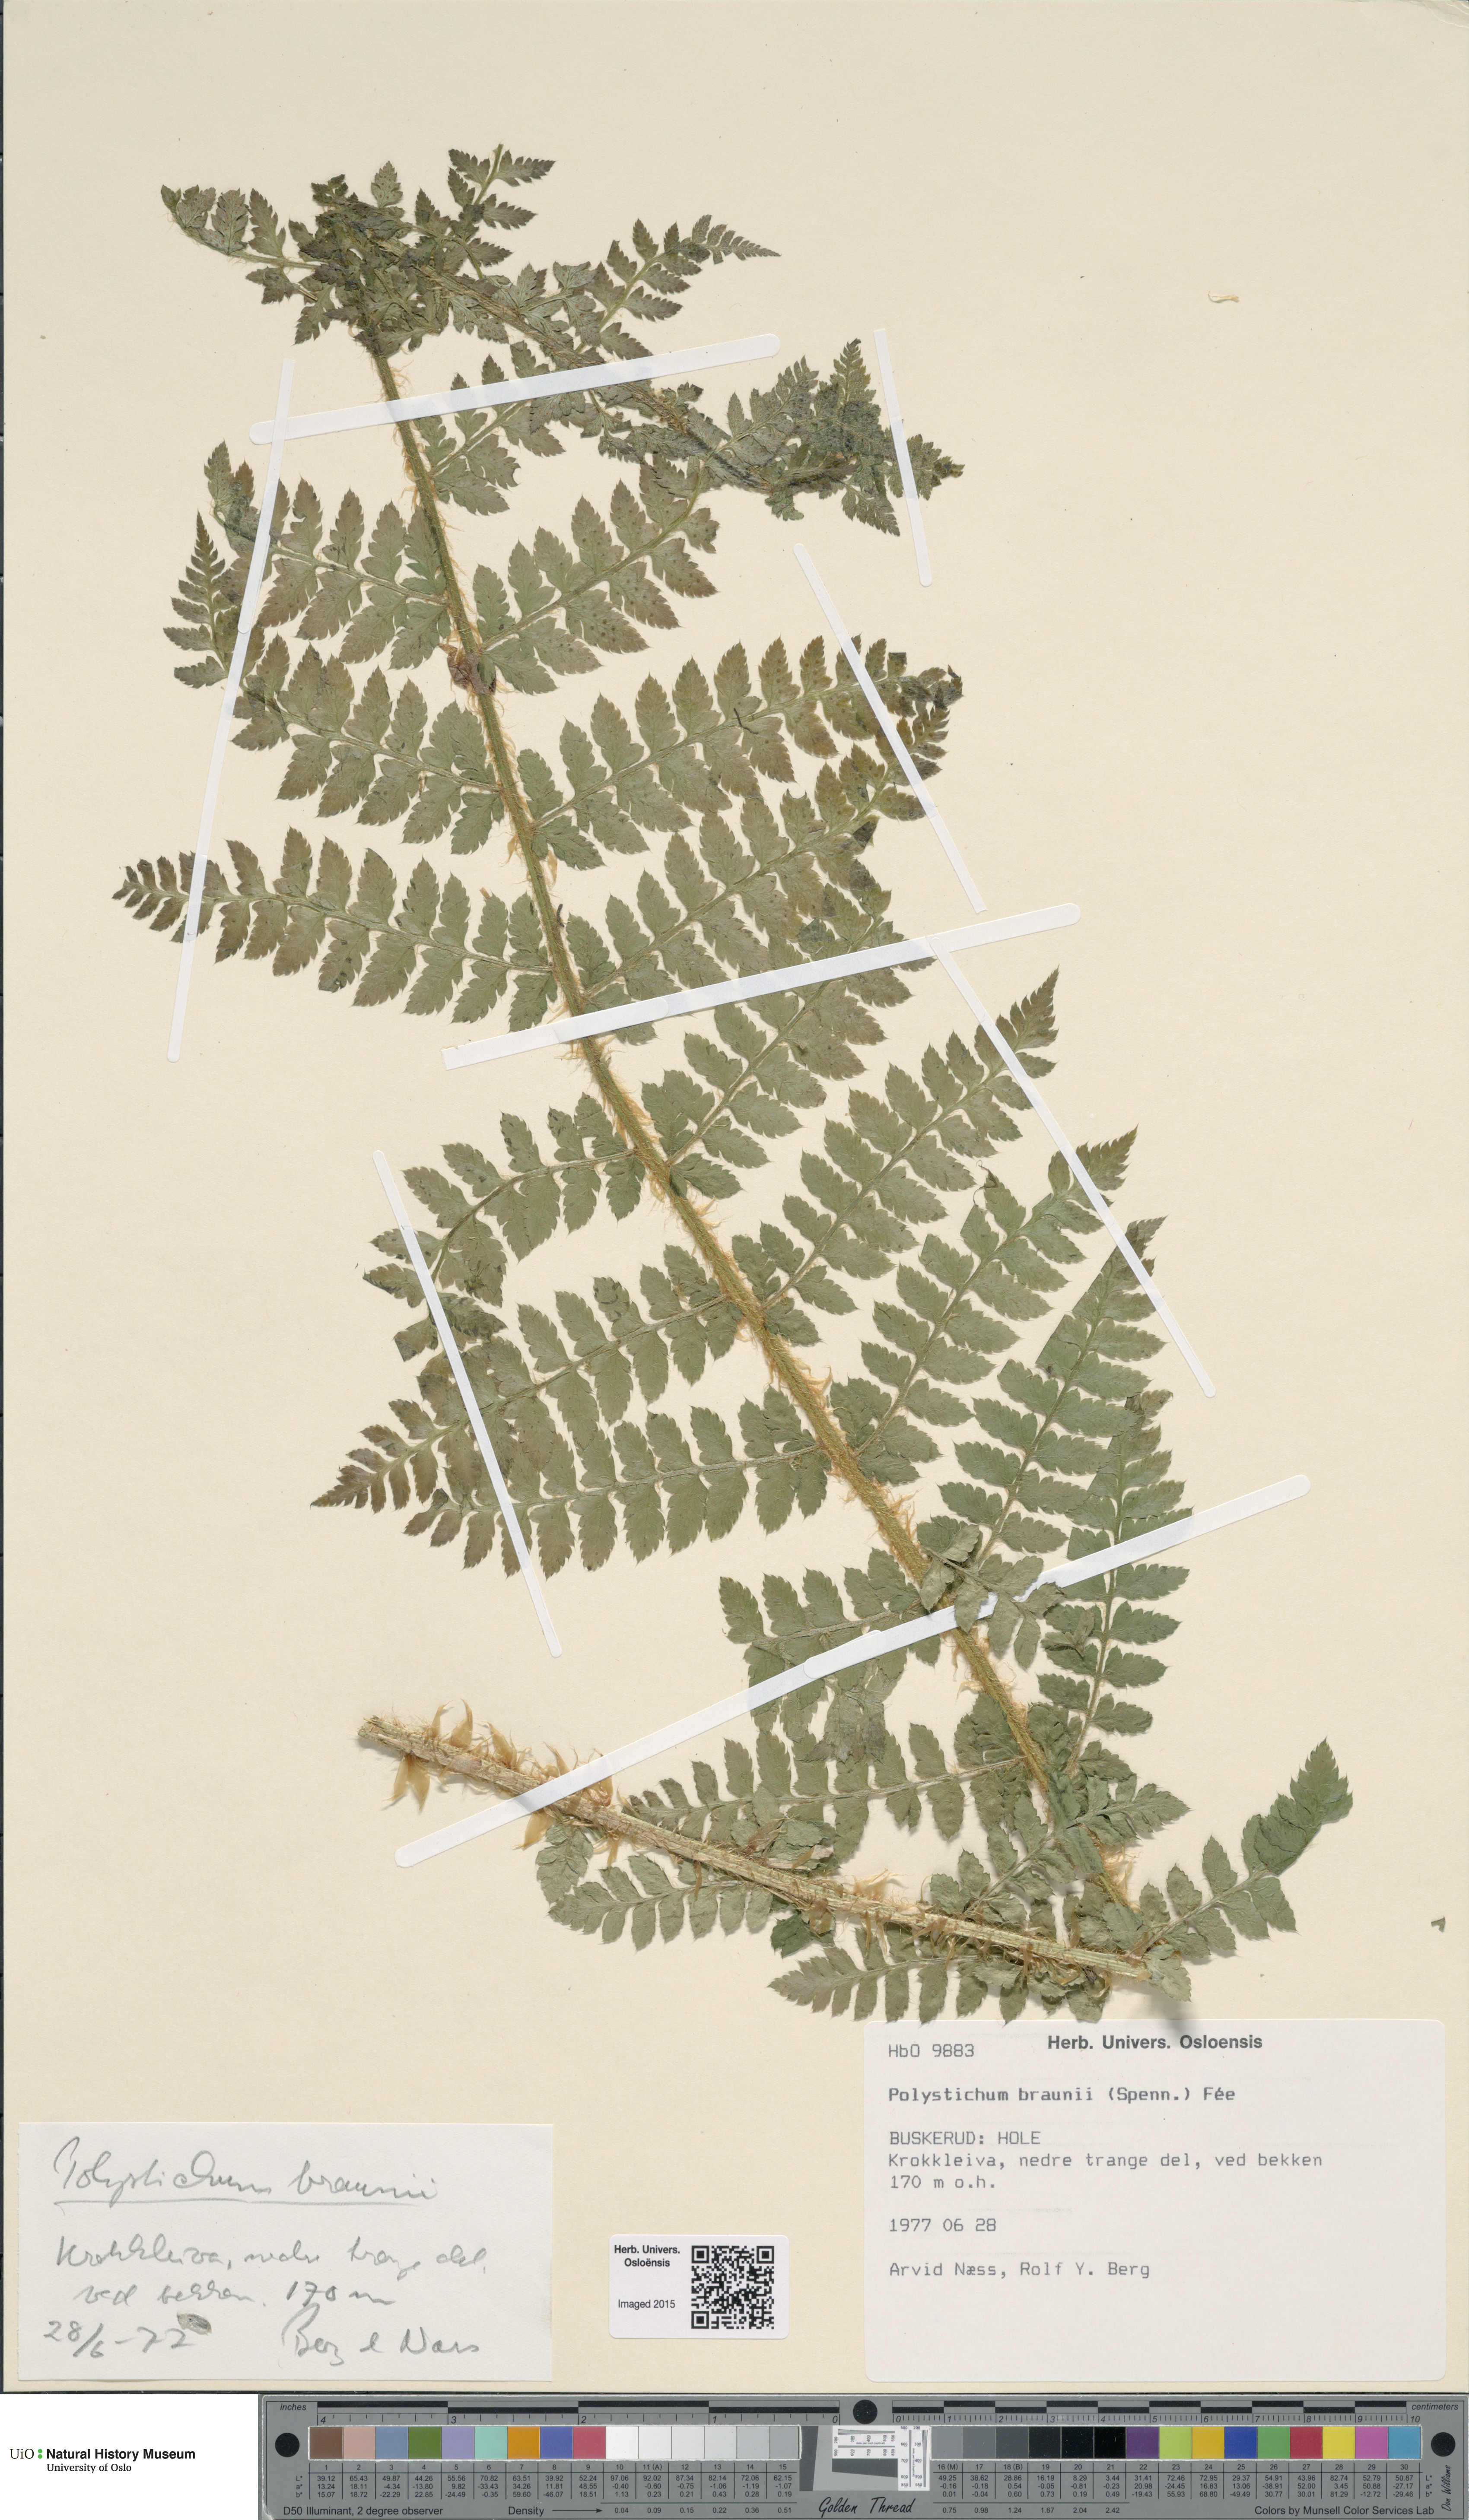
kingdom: Plantae
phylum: Tracheophyta
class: Polypodiopsida
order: Polypodiales
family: Dryopteridaceae
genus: Polystichum
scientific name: Polystichum braunii
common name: Braun's holly fern
